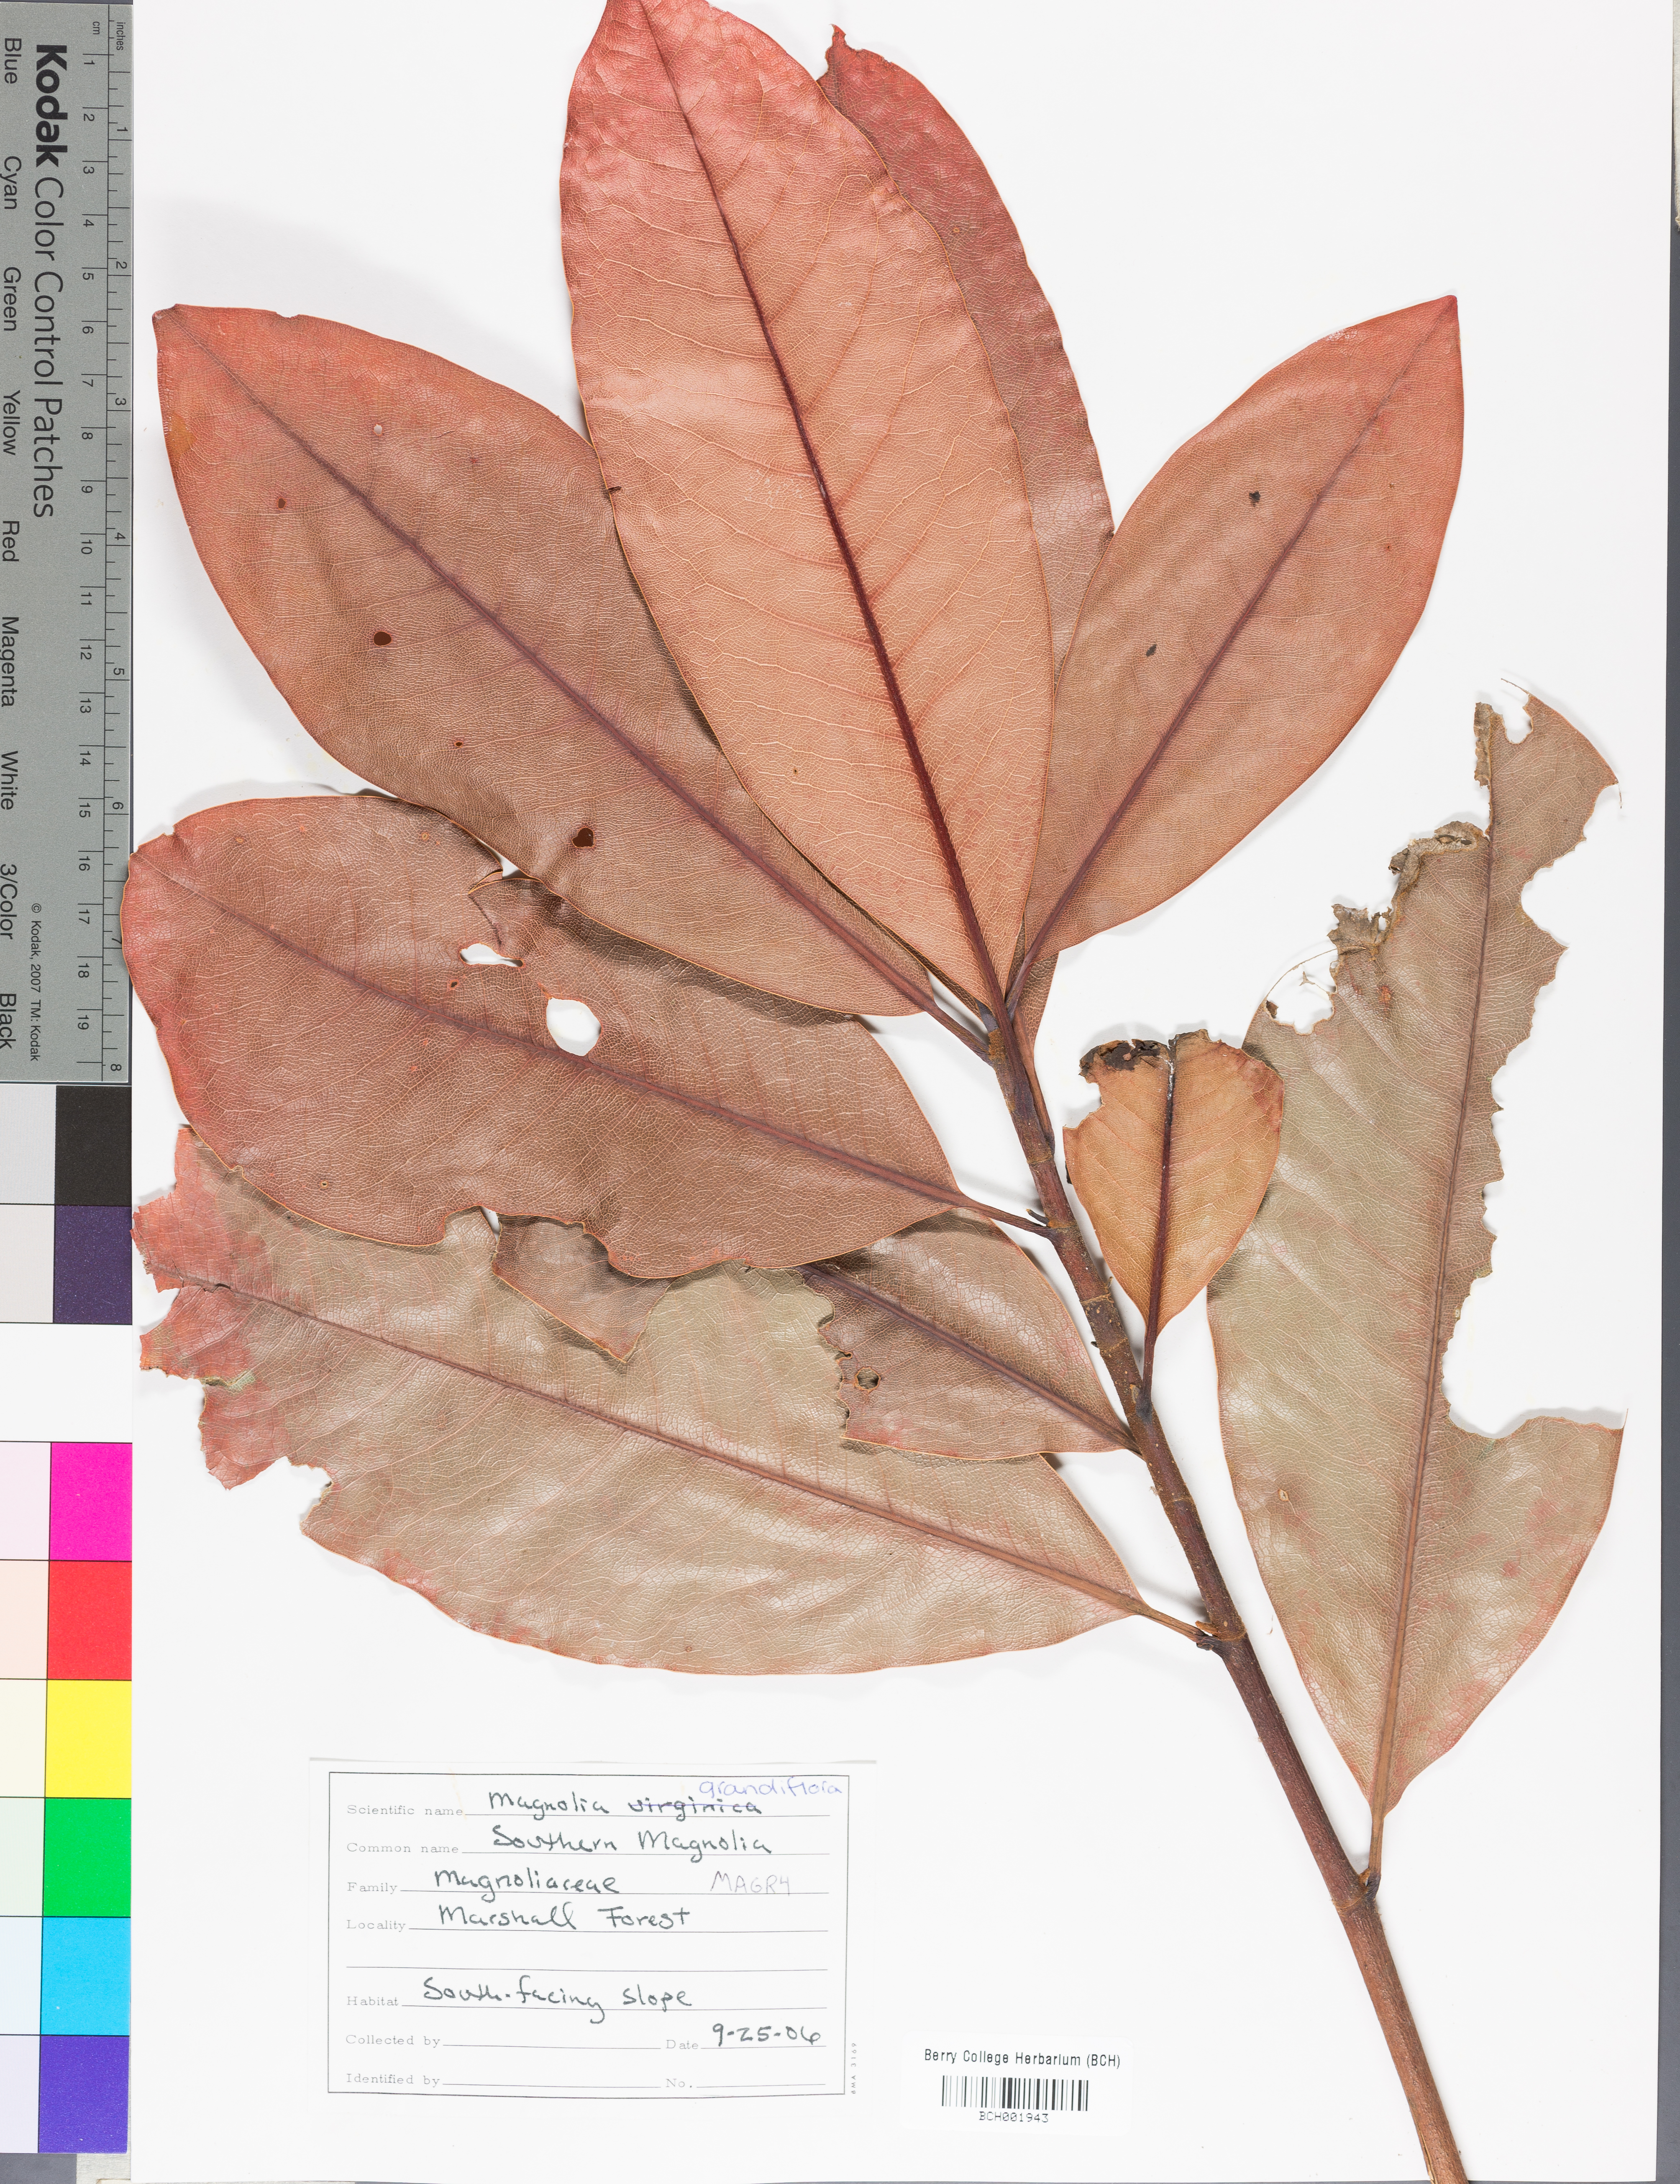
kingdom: Plantae
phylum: Tracheophyta
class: Magnoliopsida
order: Magnoliales
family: Magnoliaceae
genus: Magnolia
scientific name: Magnolia grandiflora
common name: Southern magnolia
